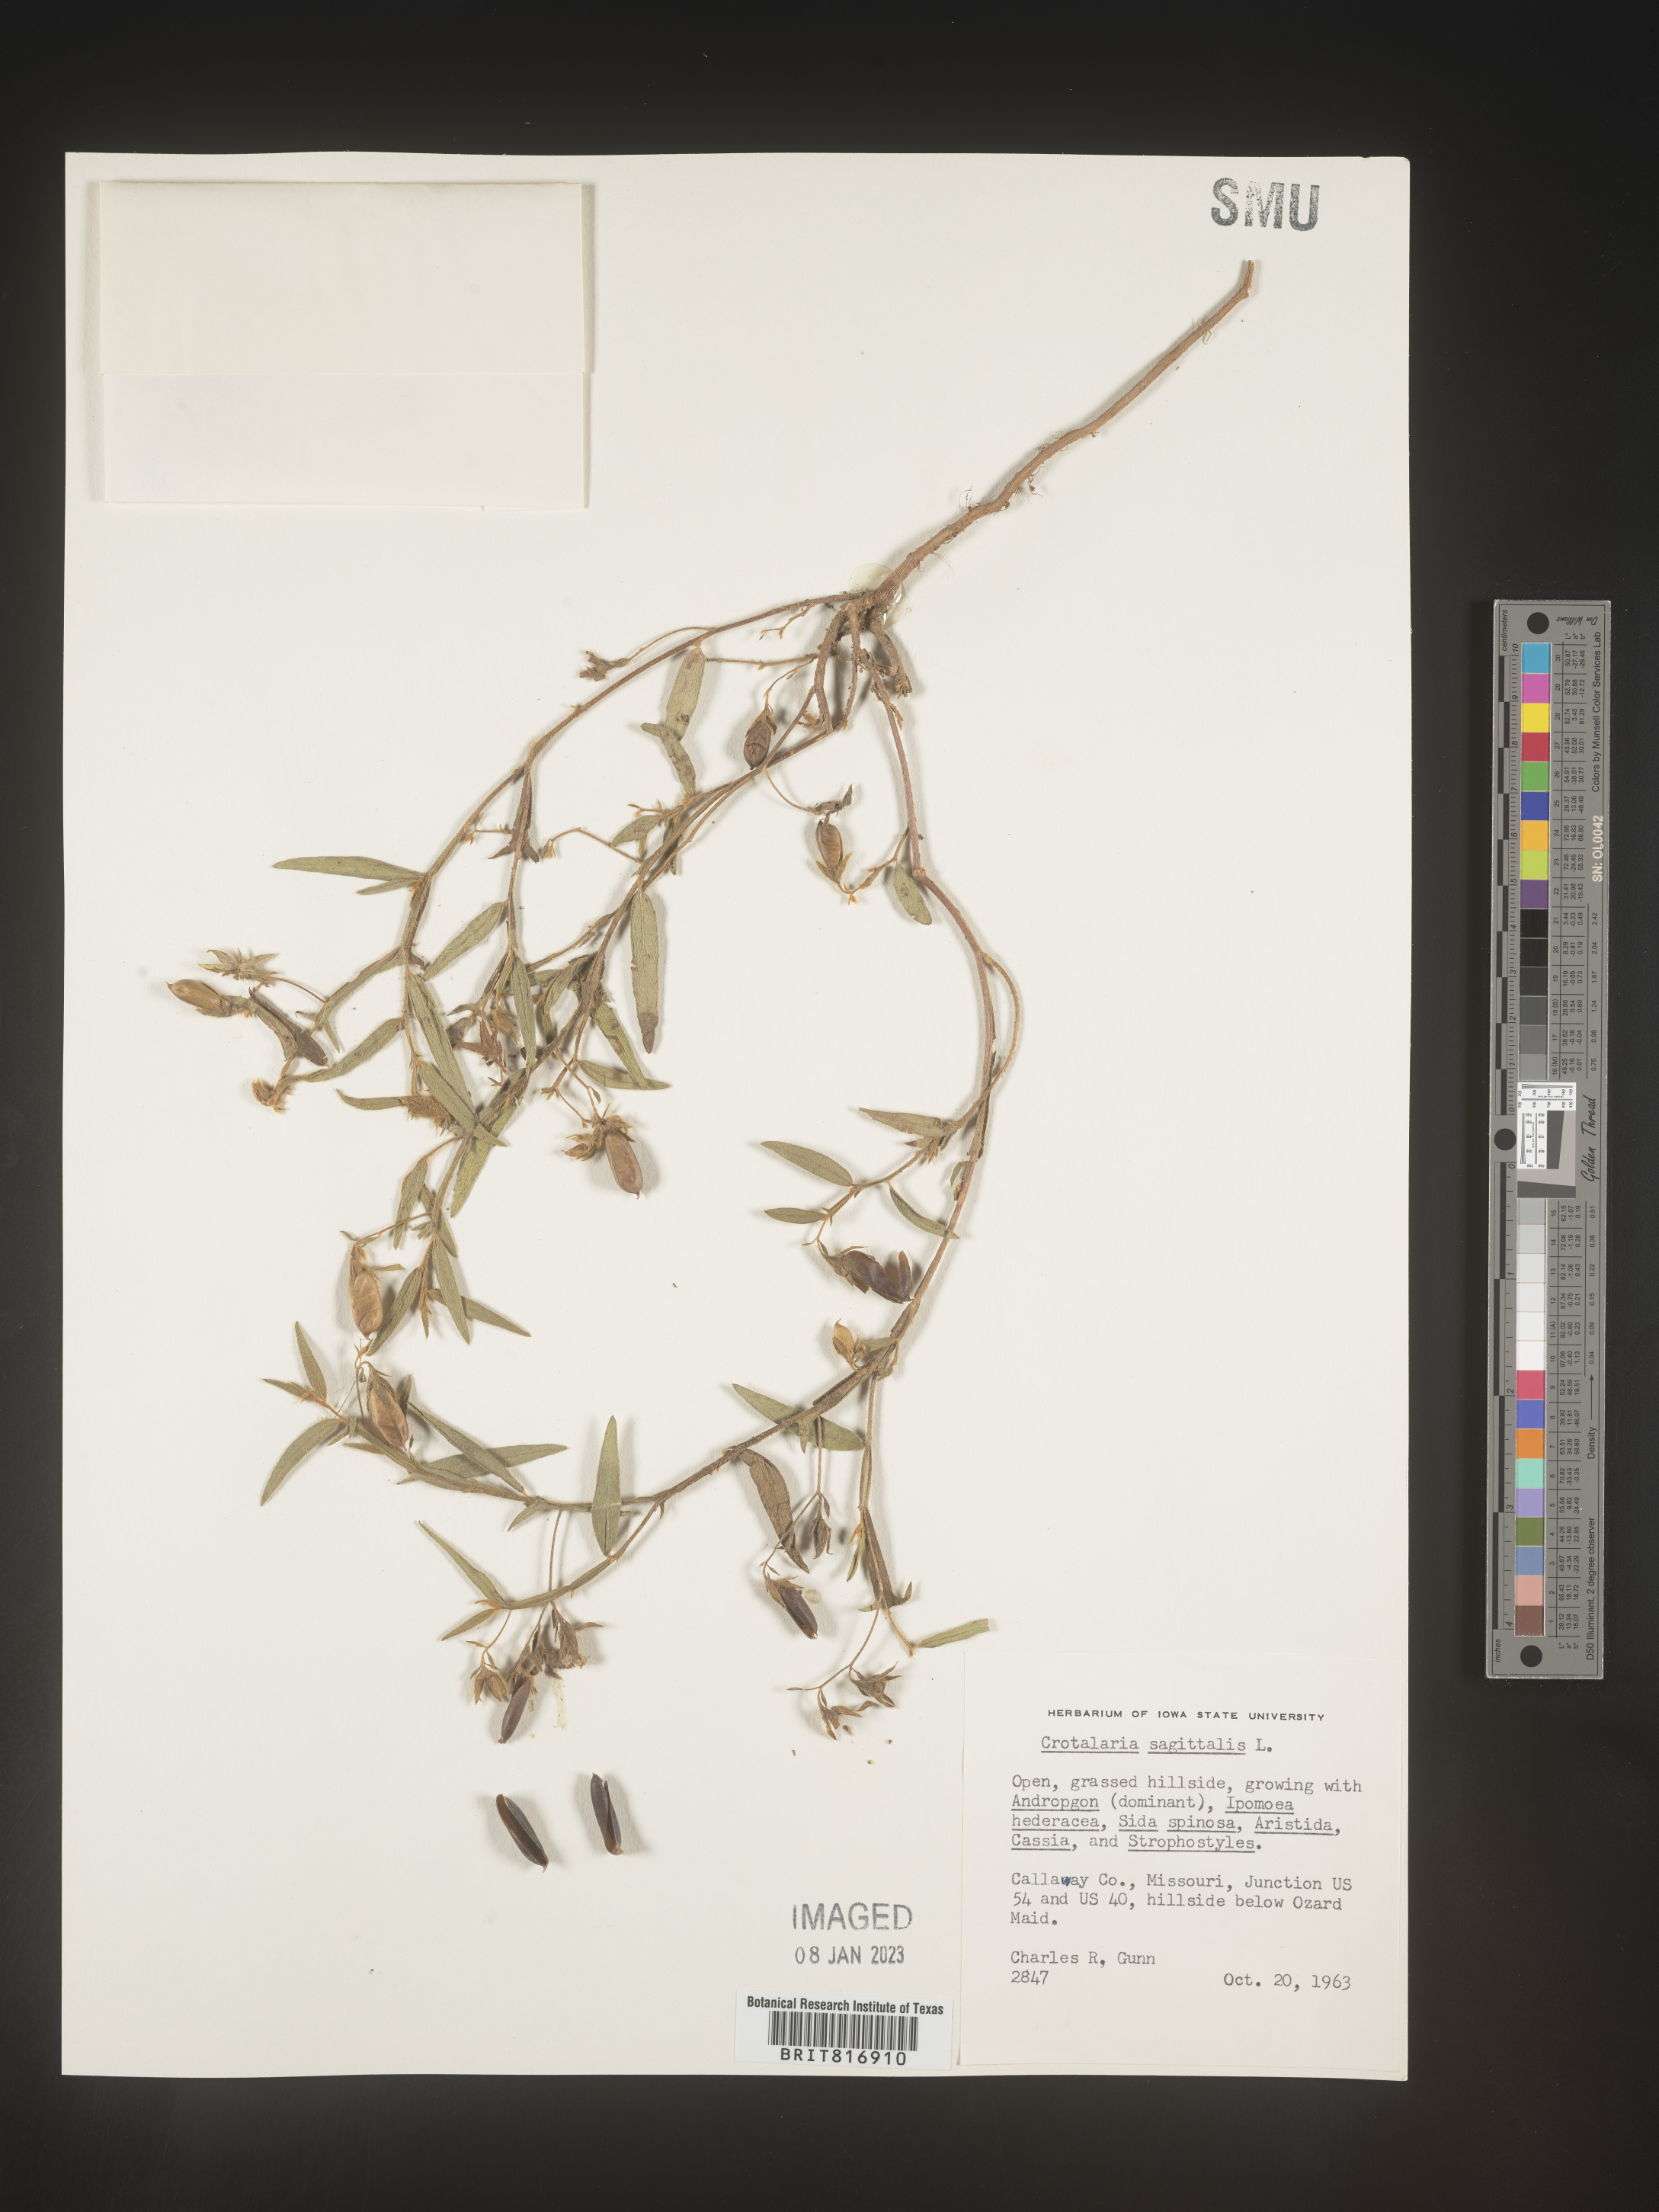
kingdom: Plantae
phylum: Tracheophyta
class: Magnoliopsida
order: Fabales
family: Fabaceae
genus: Crotalaria
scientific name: Crotalaria sagittalis
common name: Arrowhead rattlebox
